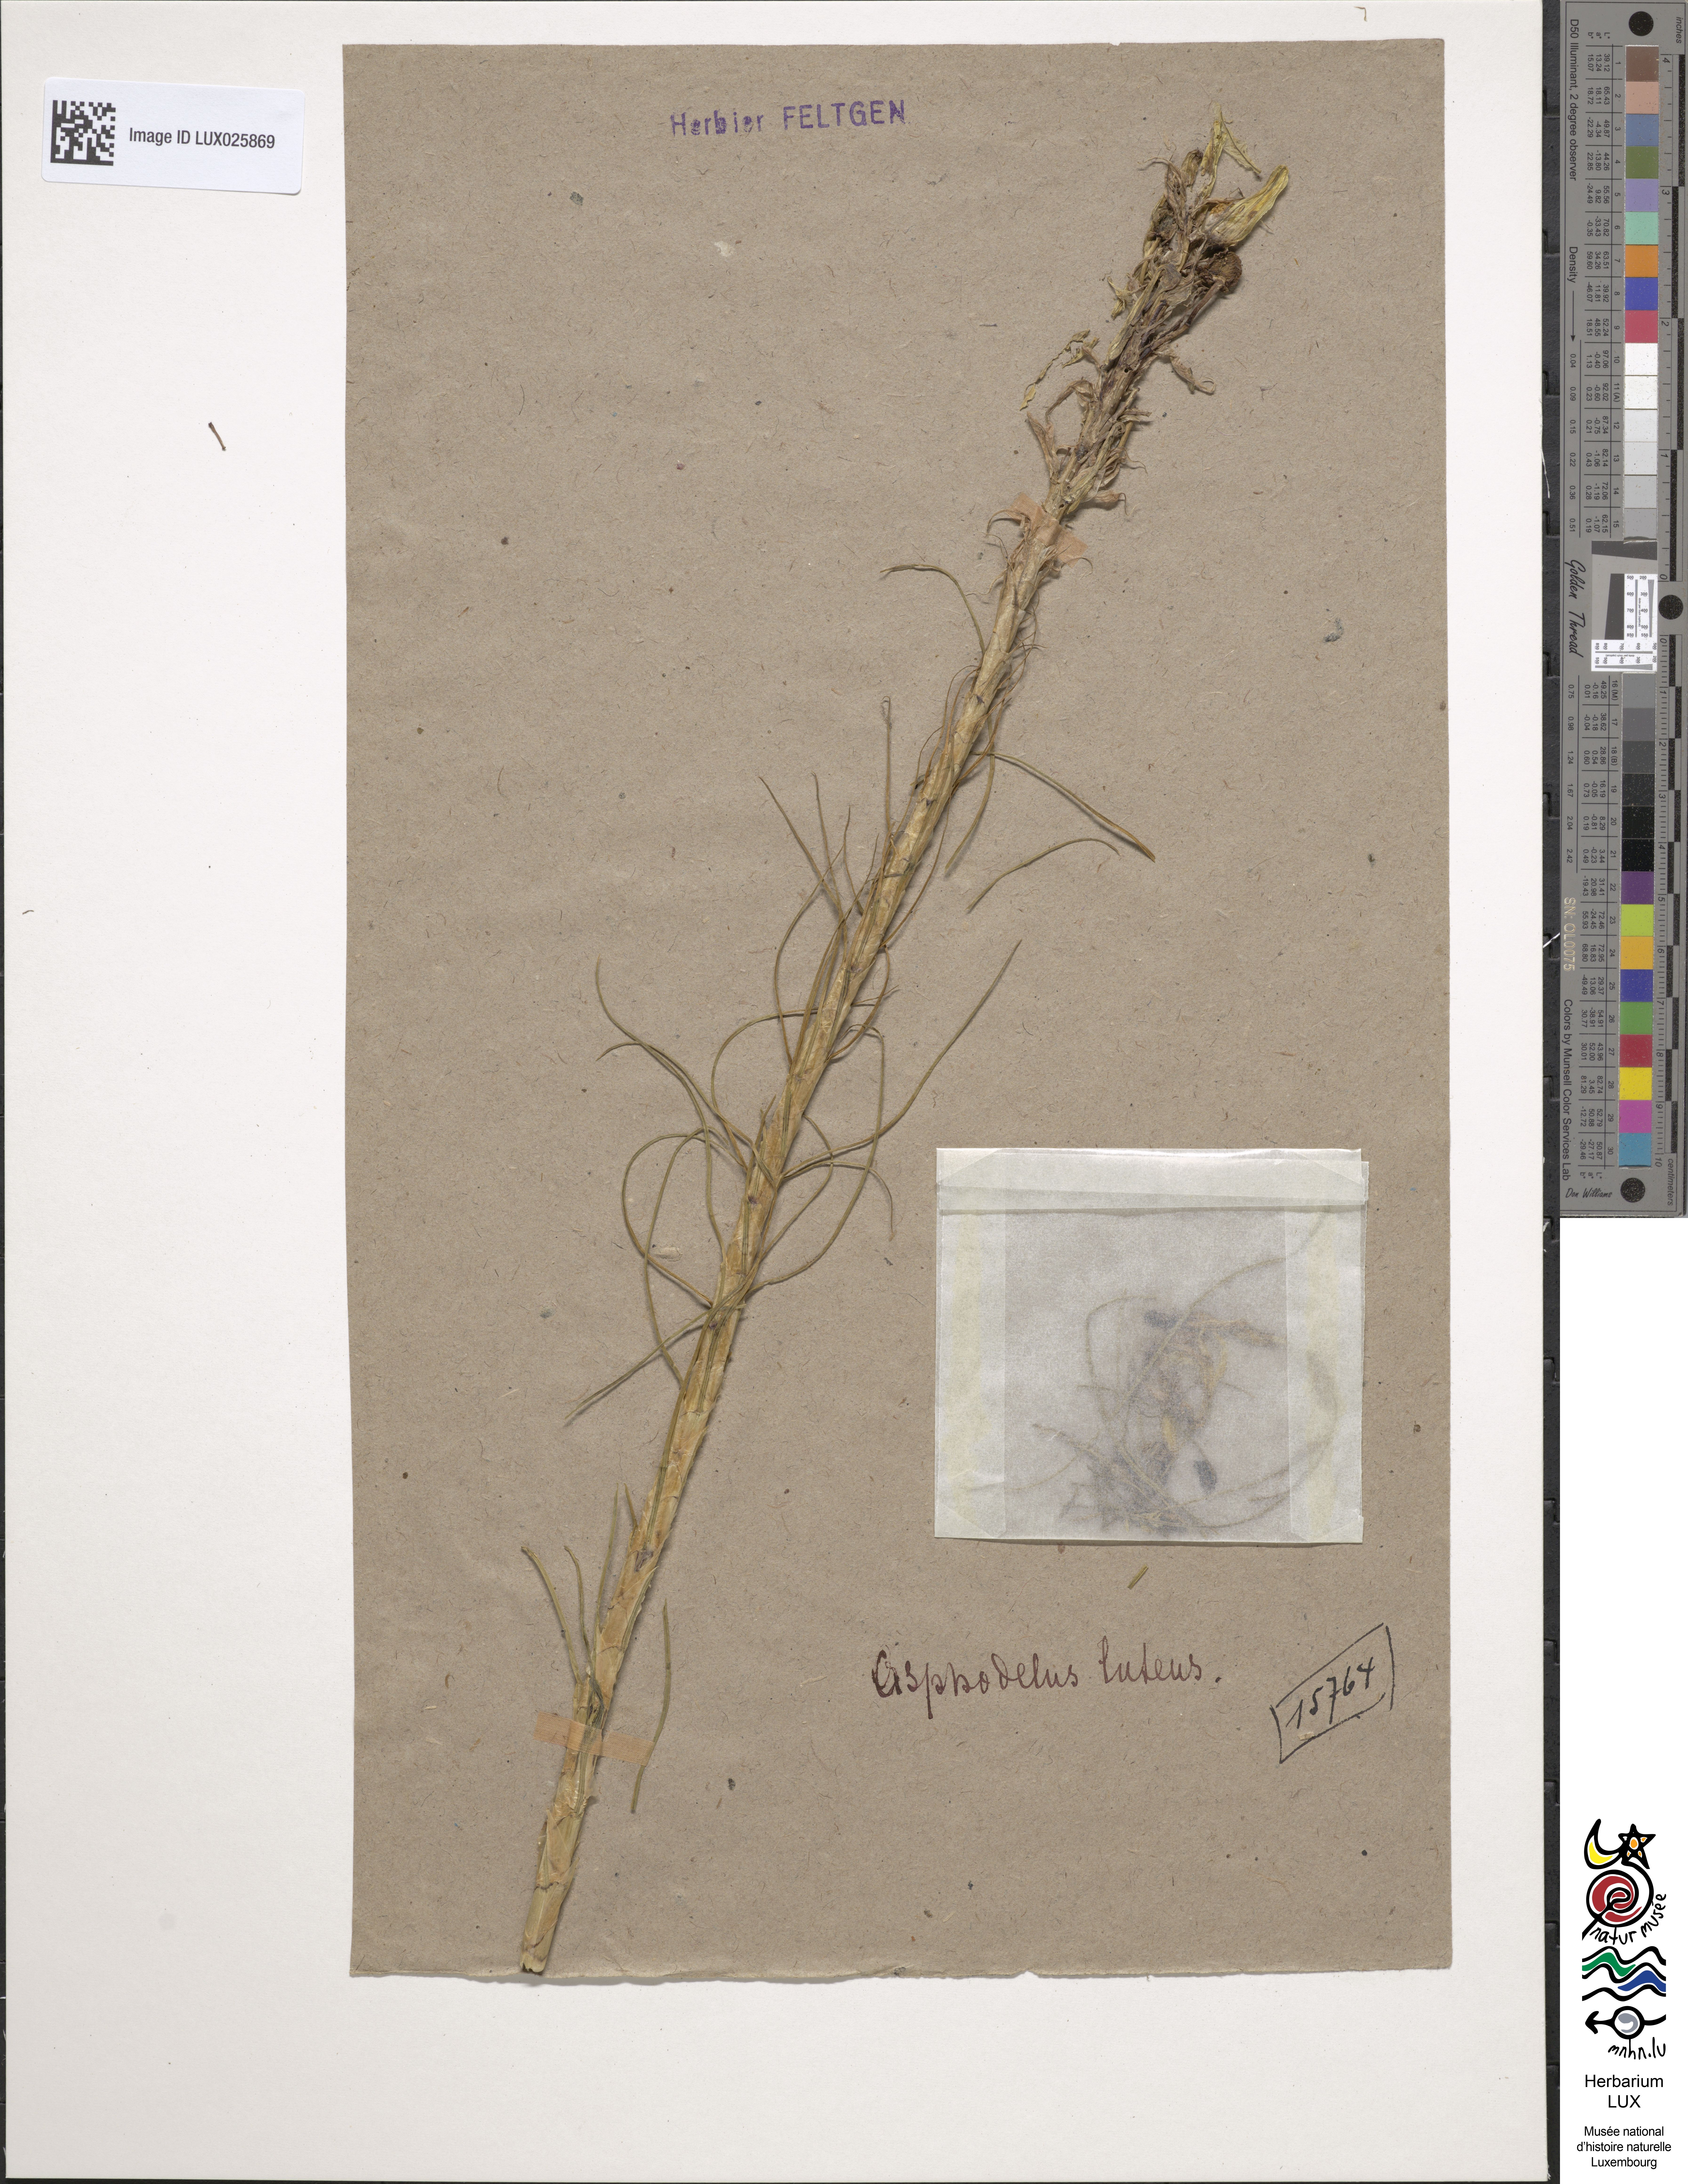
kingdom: Plantae
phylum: Tracheophyta
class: Liliopsida
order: Asparagales
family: Asphodelaceae
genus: Asphodeline
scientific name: Asphodeline lutea
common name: Yellow asphodel
